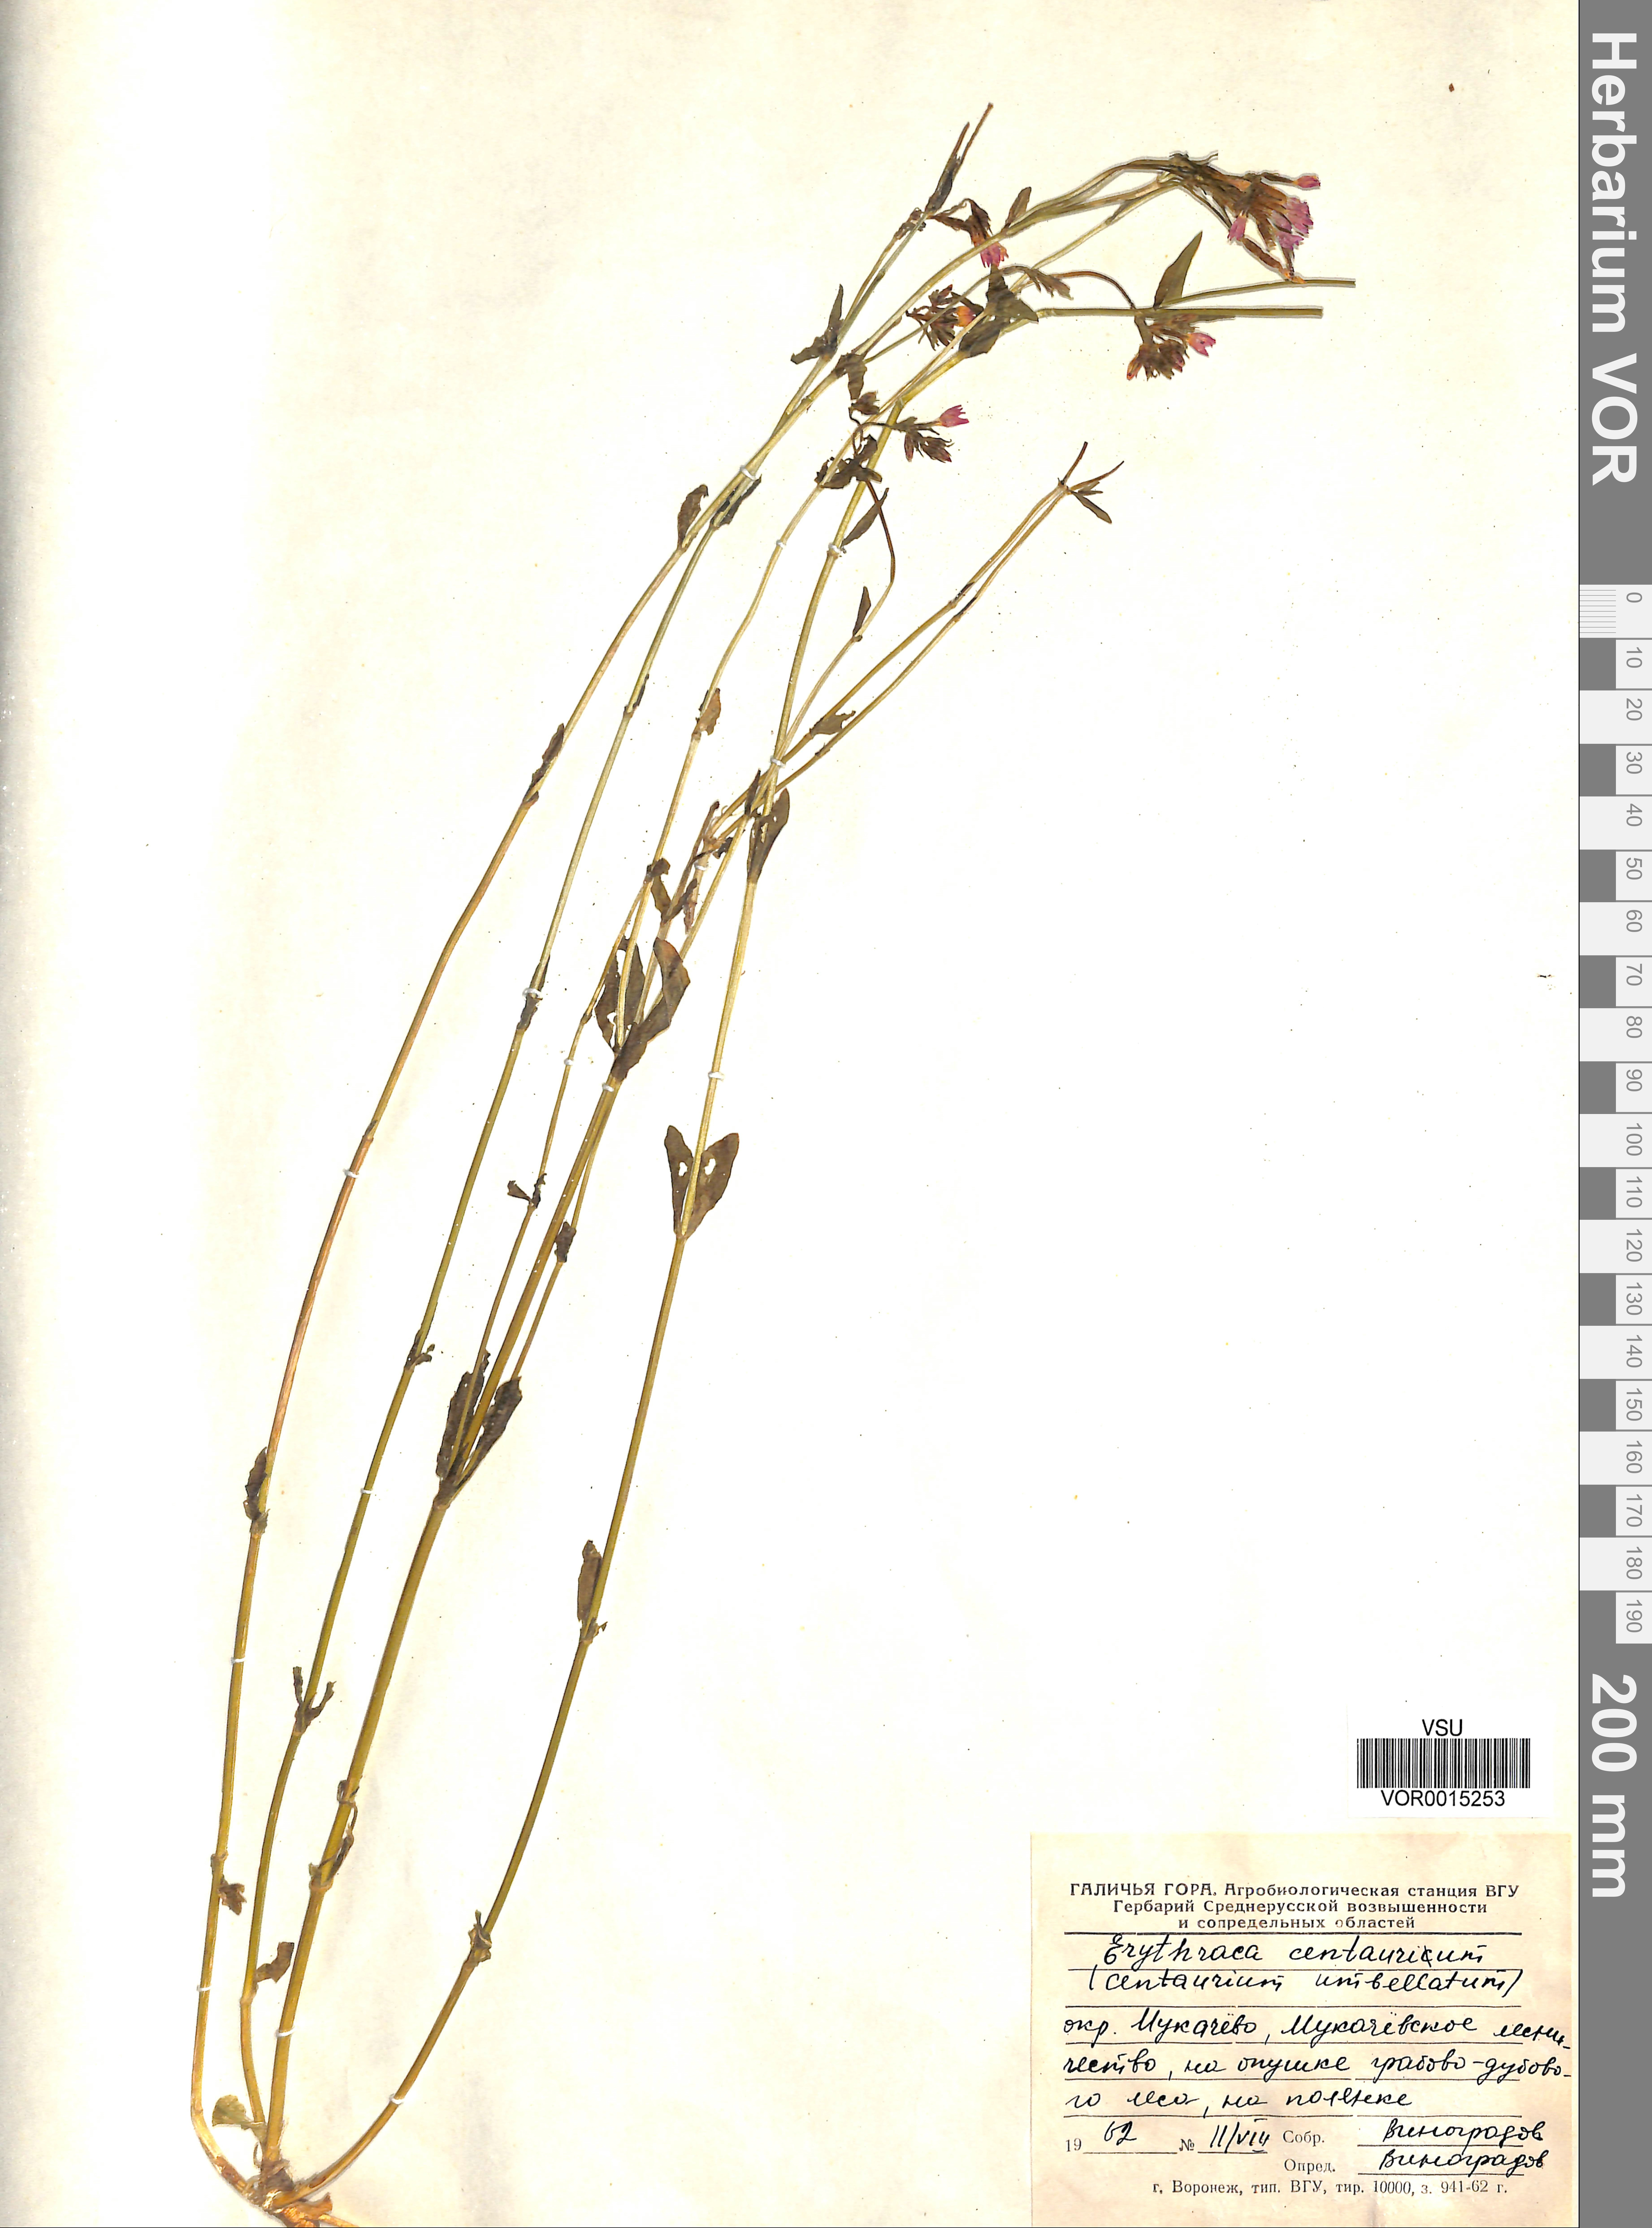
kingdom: Plantae
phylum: Tracheophyta
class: Magnoliopsida
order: Gentianales
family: Gentianaceae
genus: Centaurium
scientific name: Centaurium erythraea
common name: Common centaury
